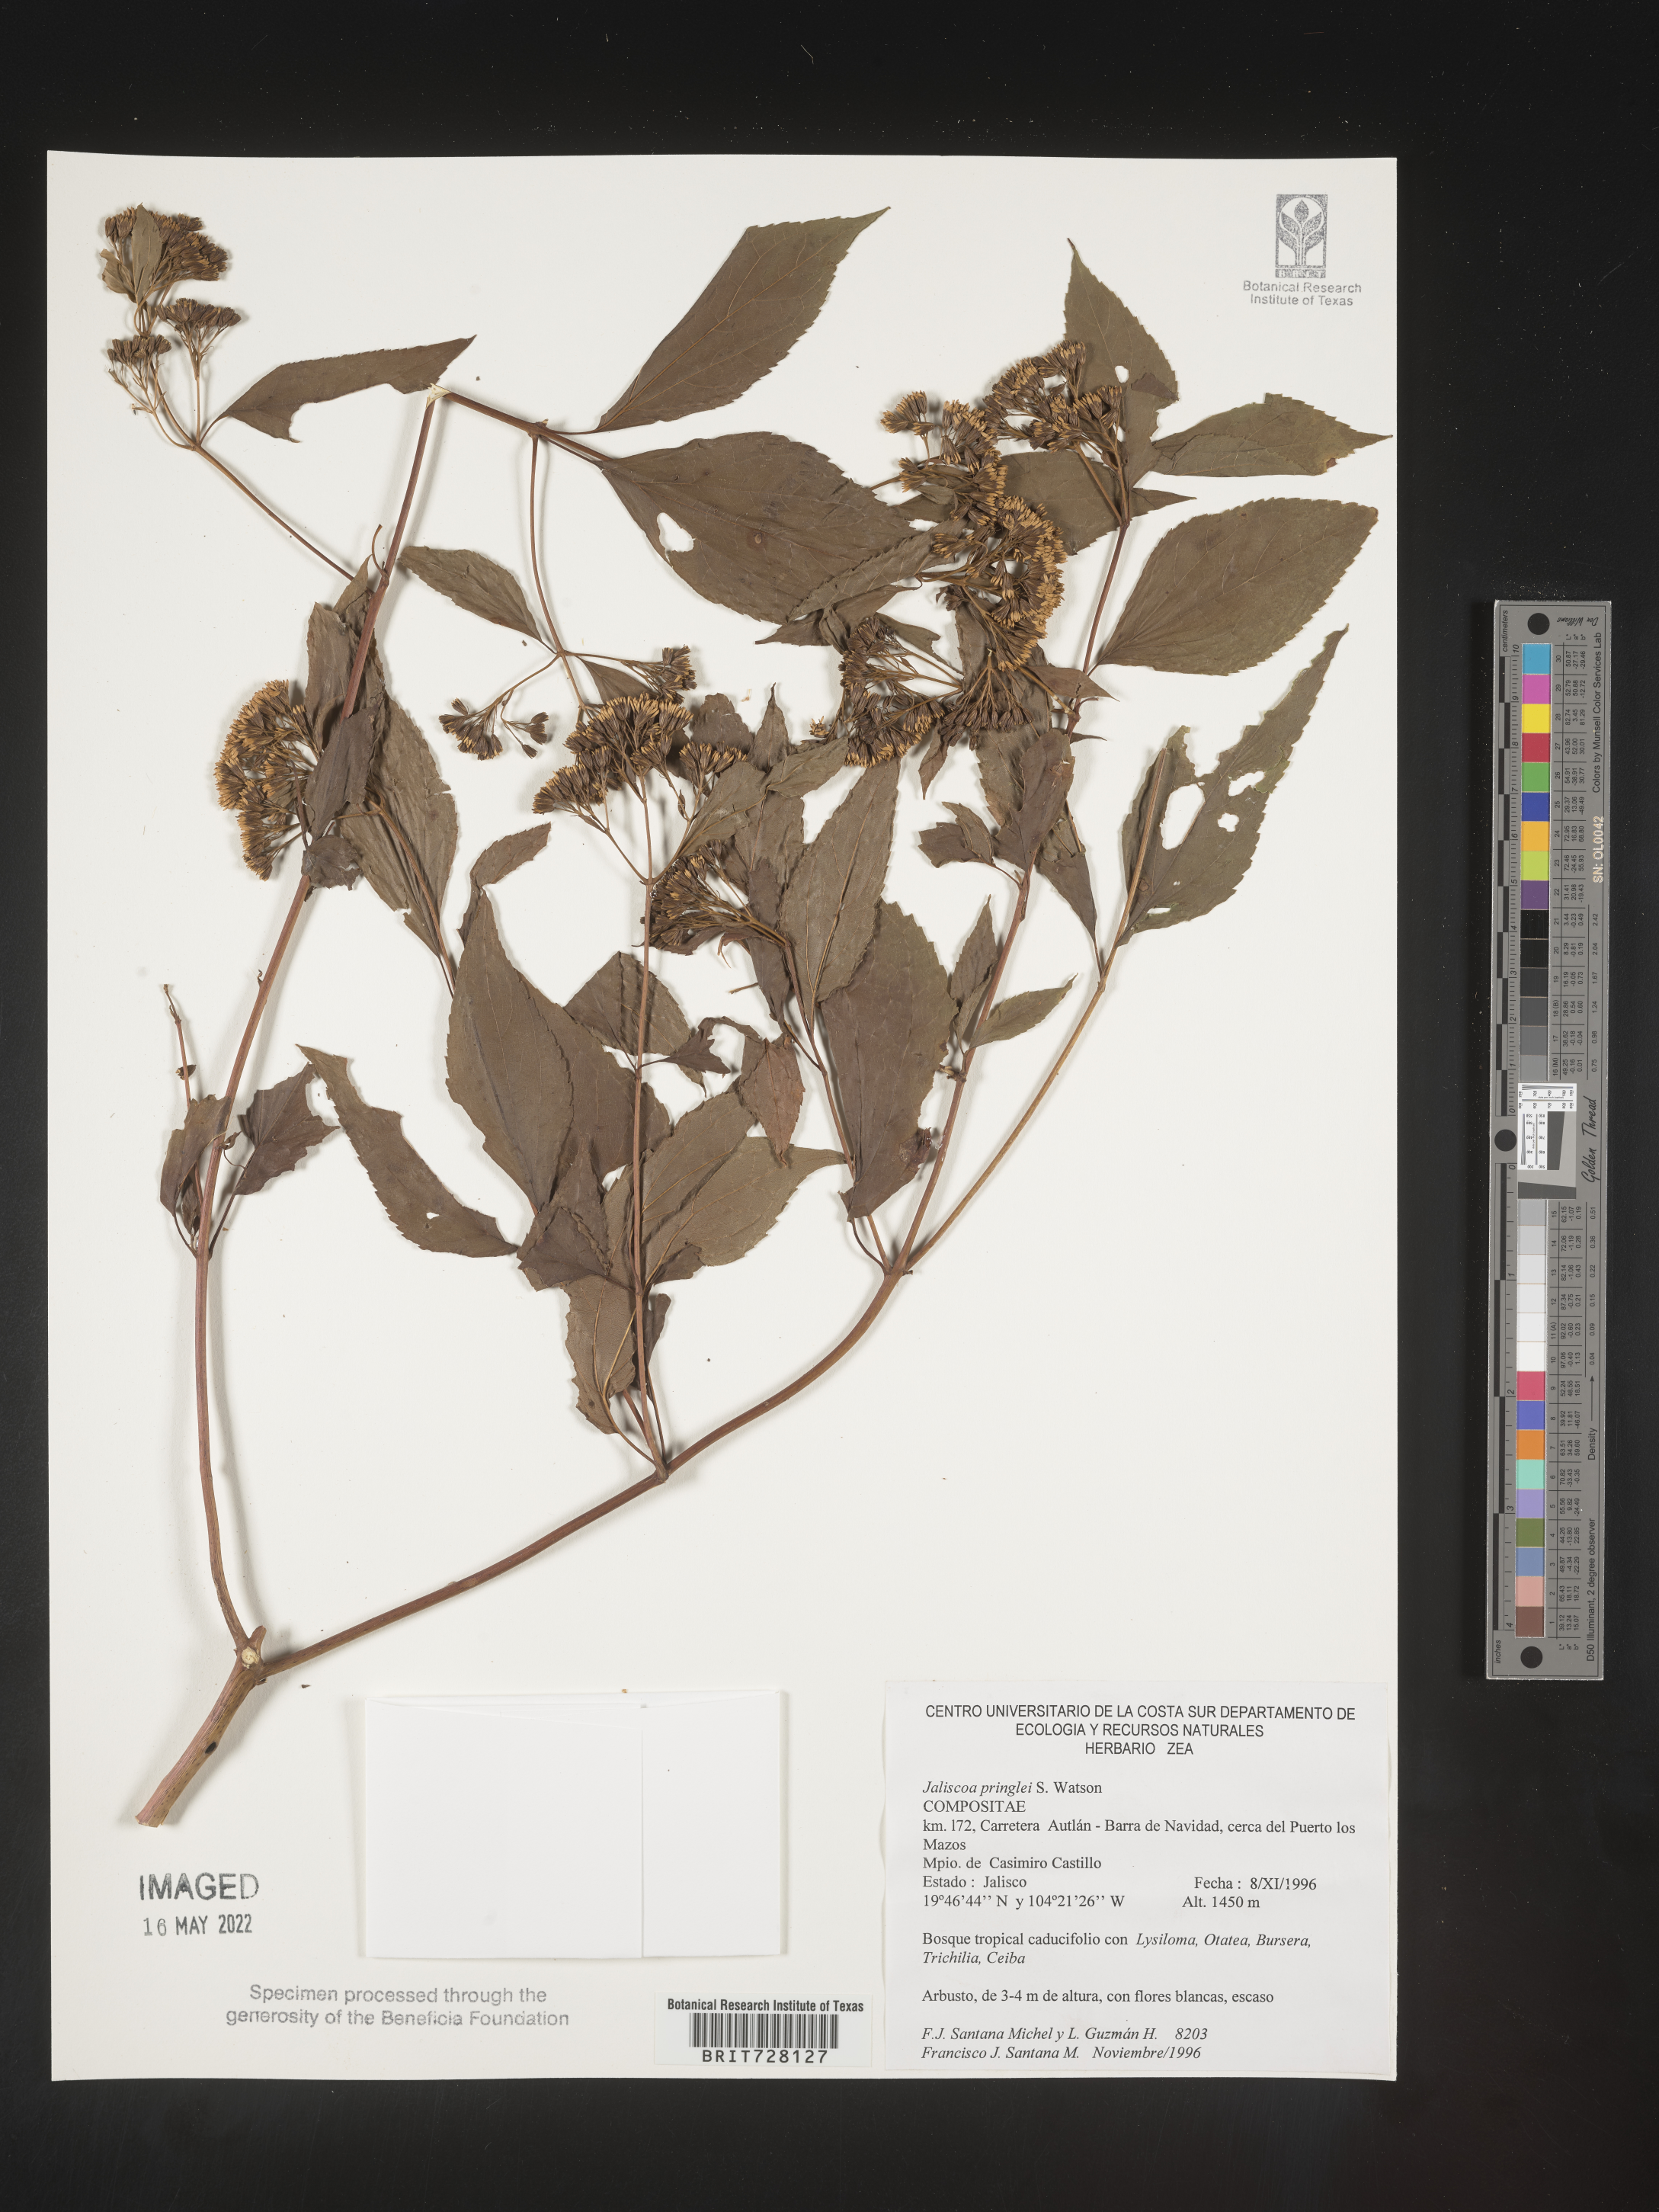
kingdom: Plantae
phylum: Tracheophyta
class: Magnoliopsida
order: Asterales
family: Asteraceae
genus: Jaegeria
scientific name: Jaegeria
